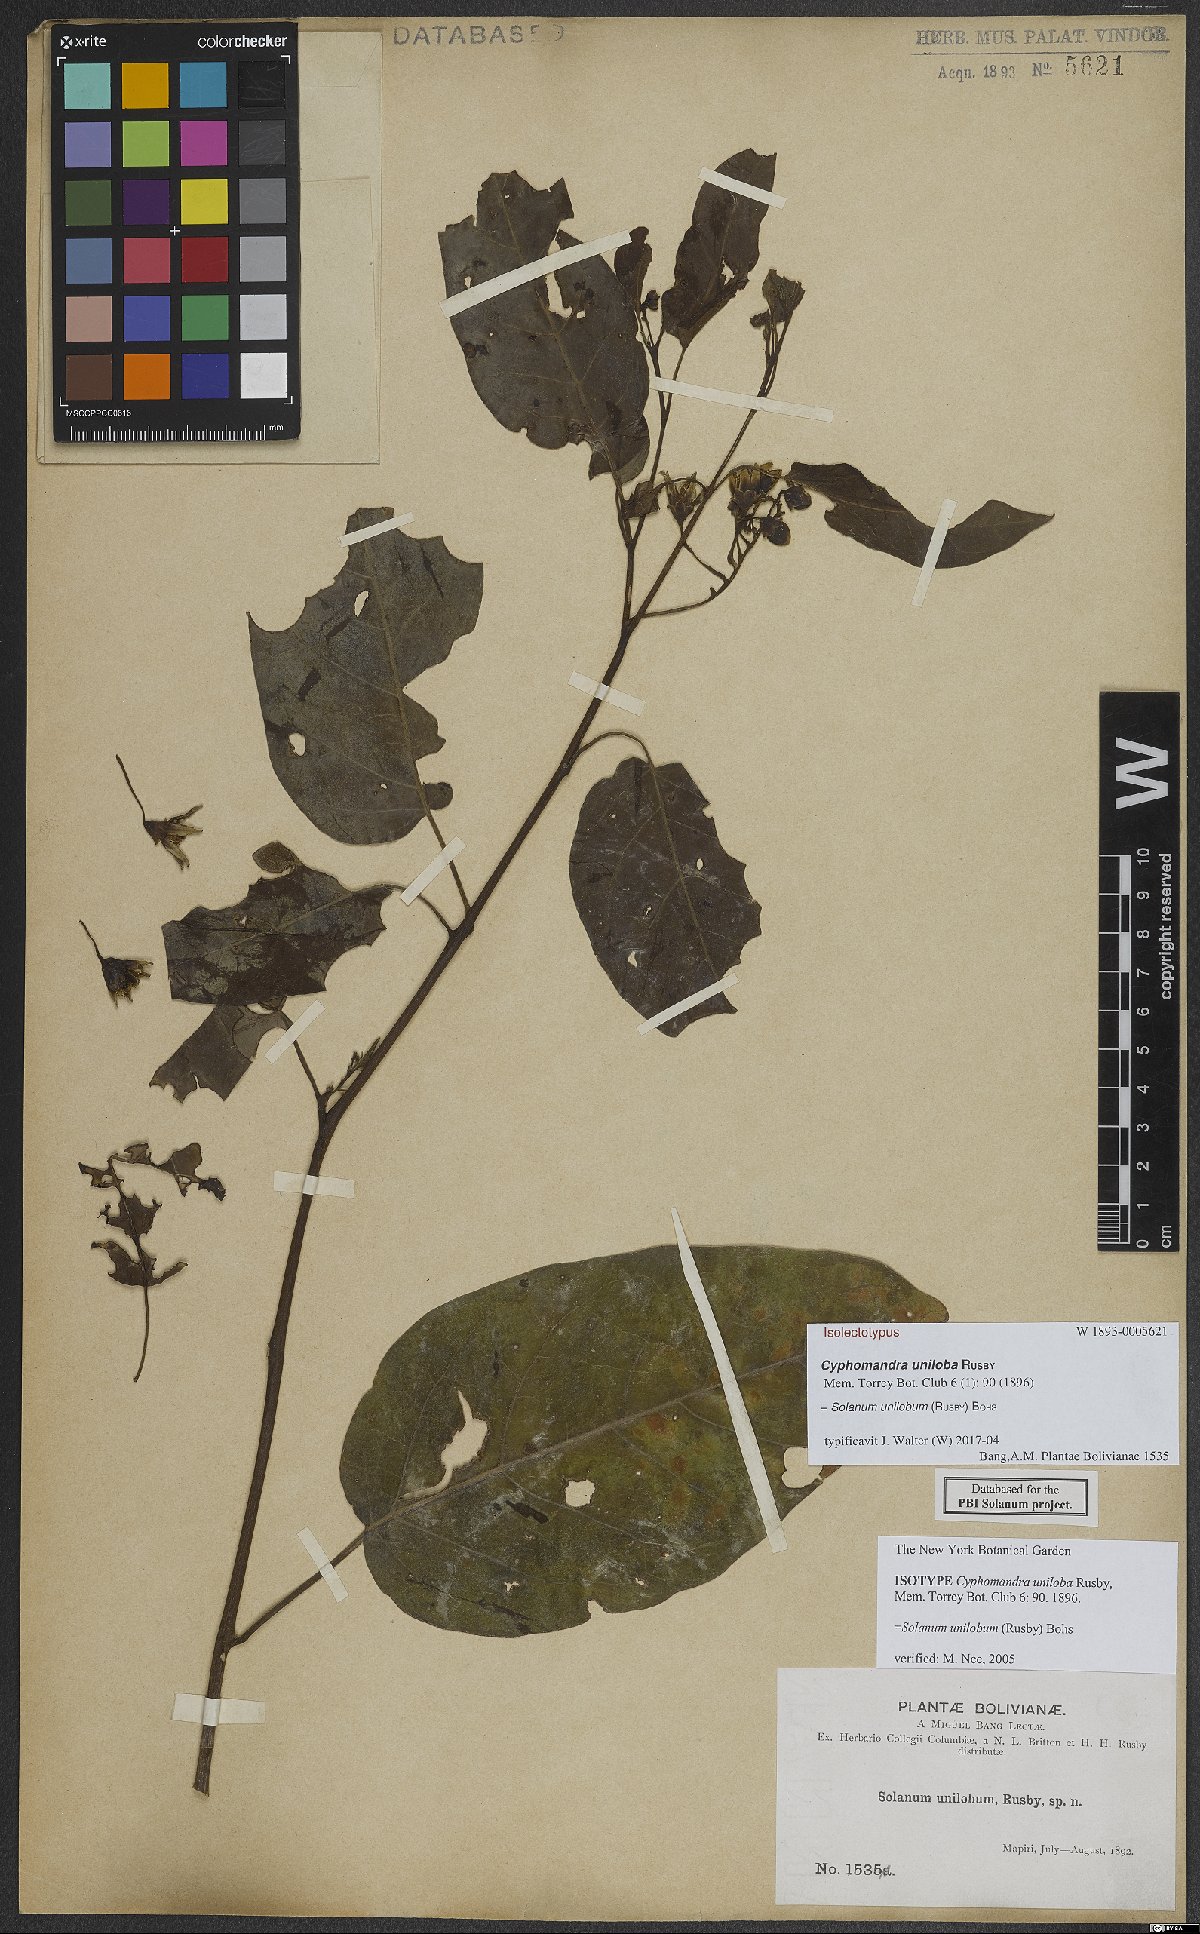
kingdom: Plantae
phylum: Tracheophyta
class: Magnoliopsida
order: Solanales
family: Solanaceae
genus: Solanum
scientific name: Solanum unilobum
